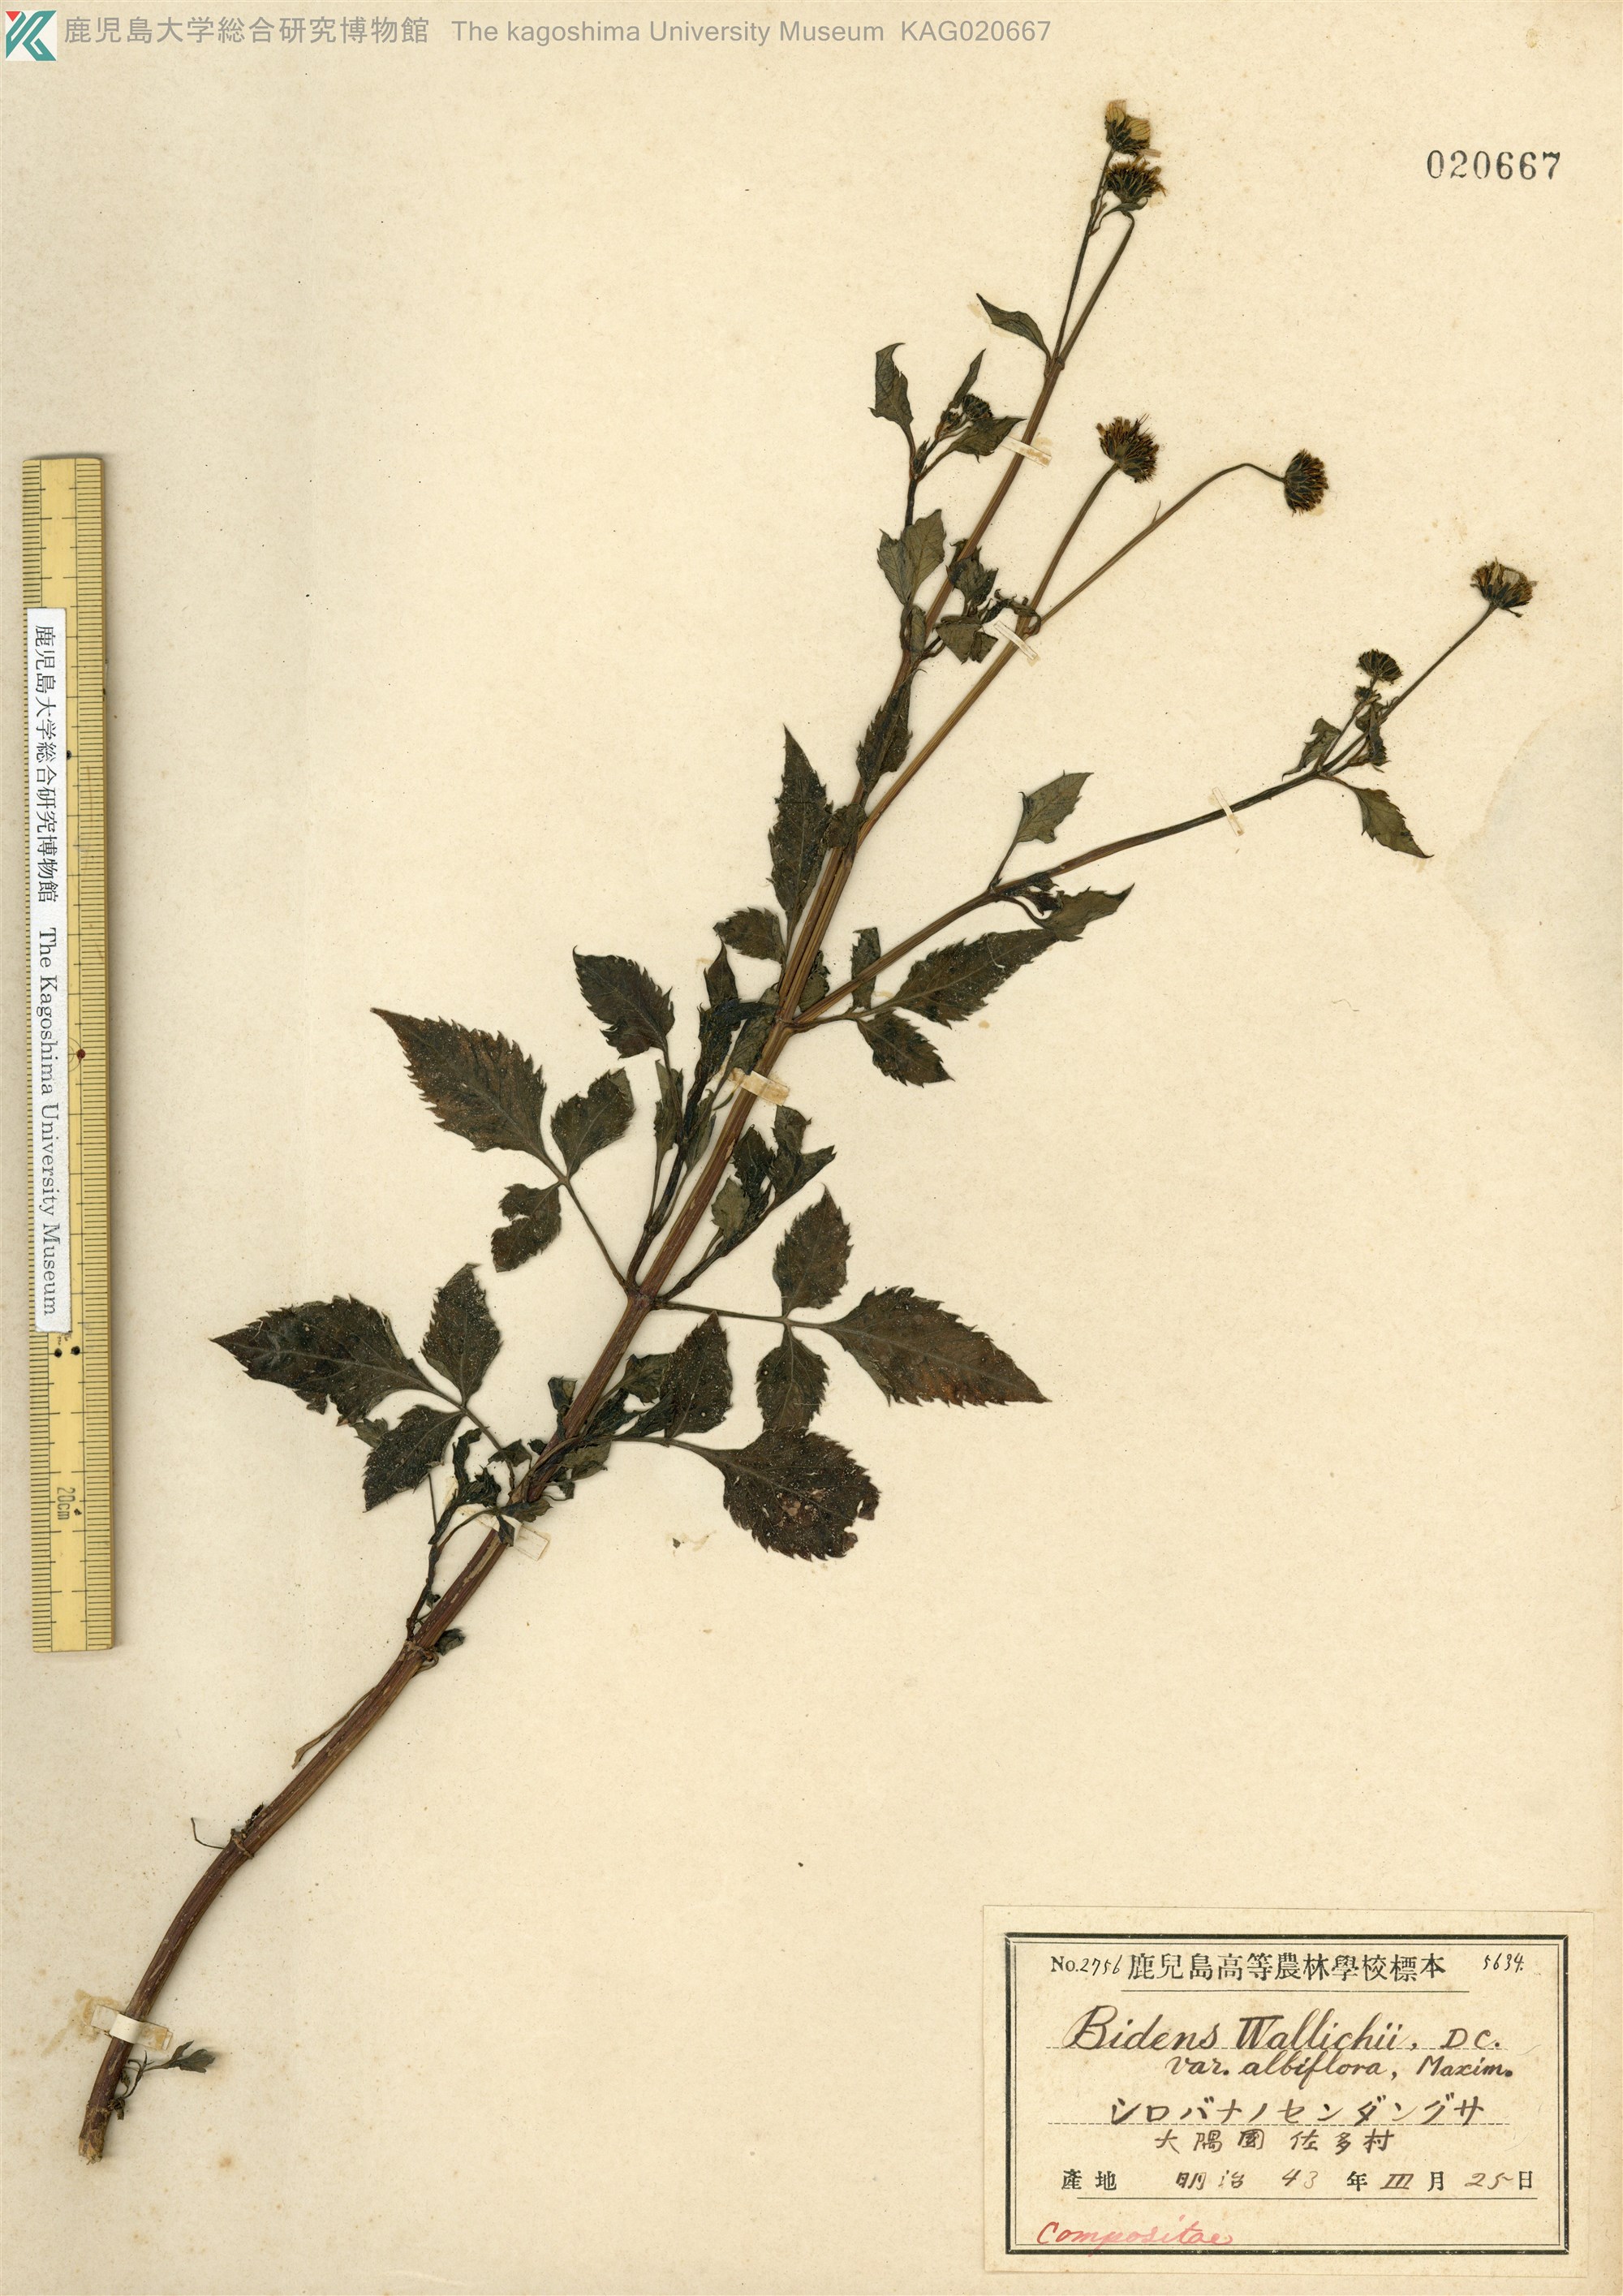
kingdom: Plantae
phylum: Tracheophyta
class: Magnoliopsida
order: Asterales
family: Asteraceae
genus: Bidens
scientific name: Bidens pilosa
